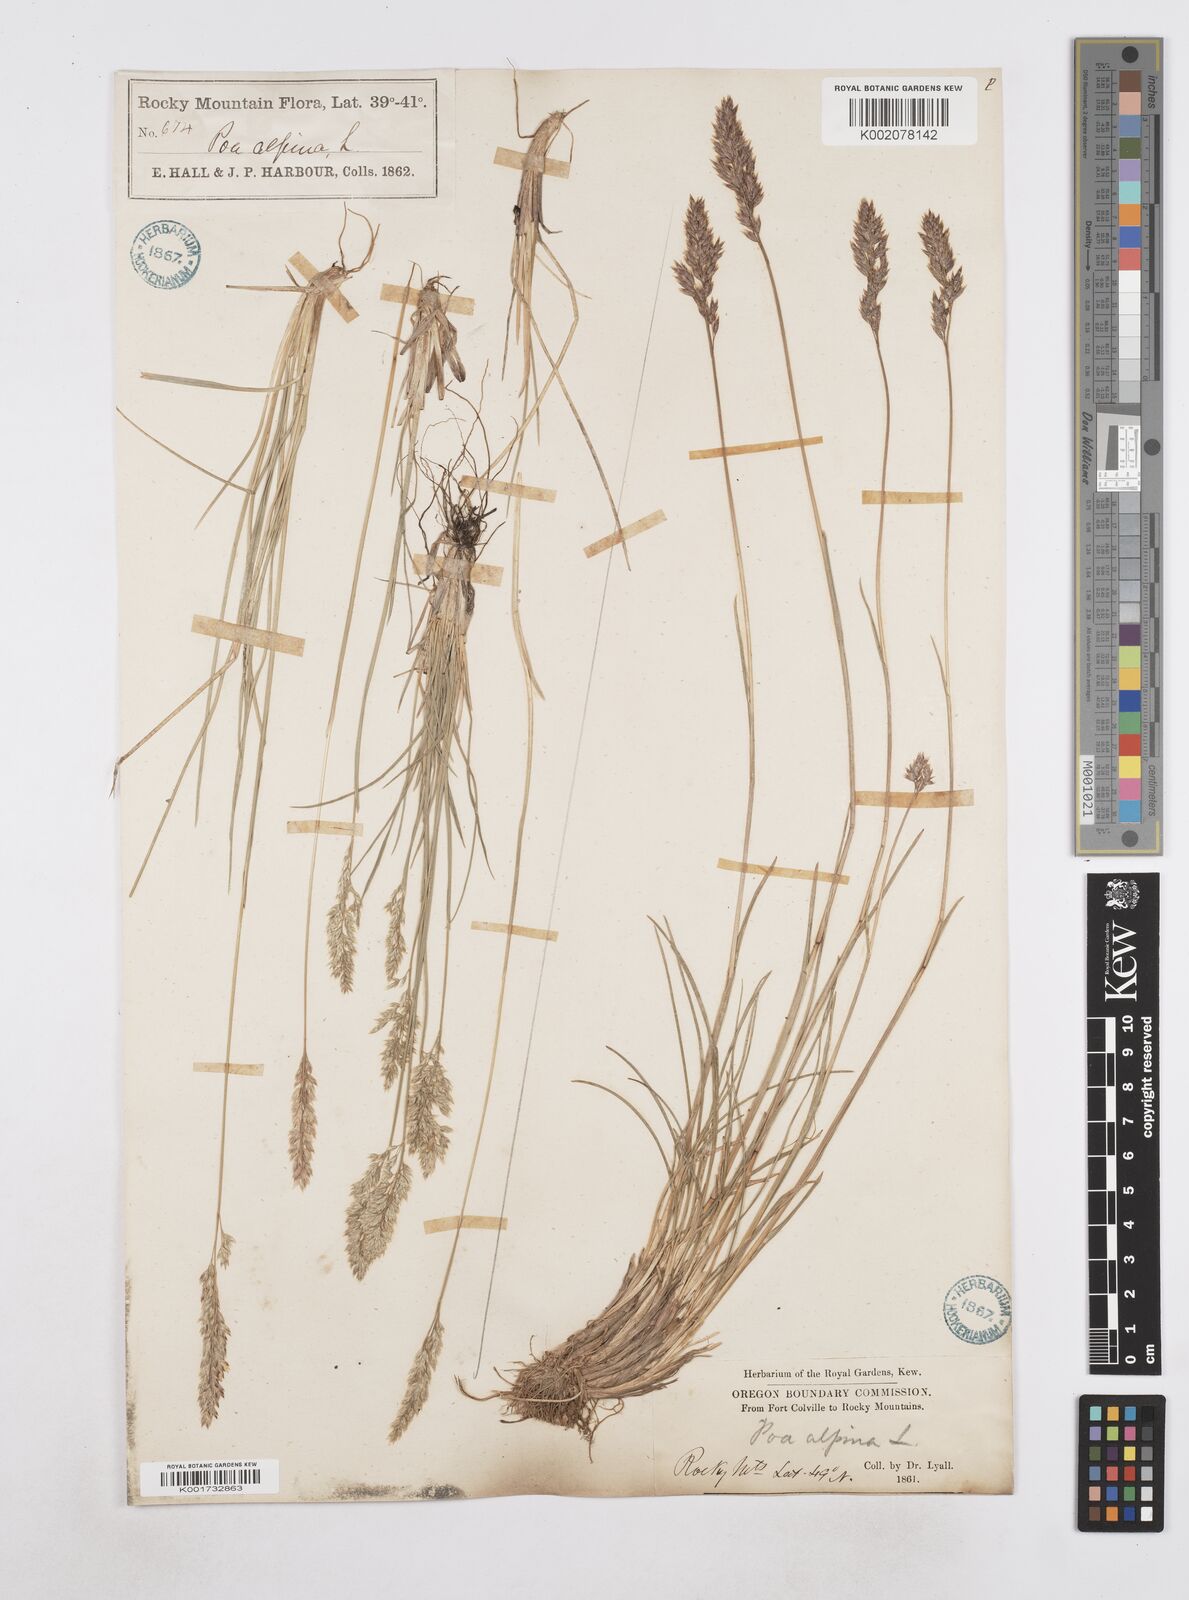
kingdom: Plantae
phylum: Tracheophyta
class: Liliopsida
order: Poales
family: Poaceae
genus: Poa
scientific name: Poa
